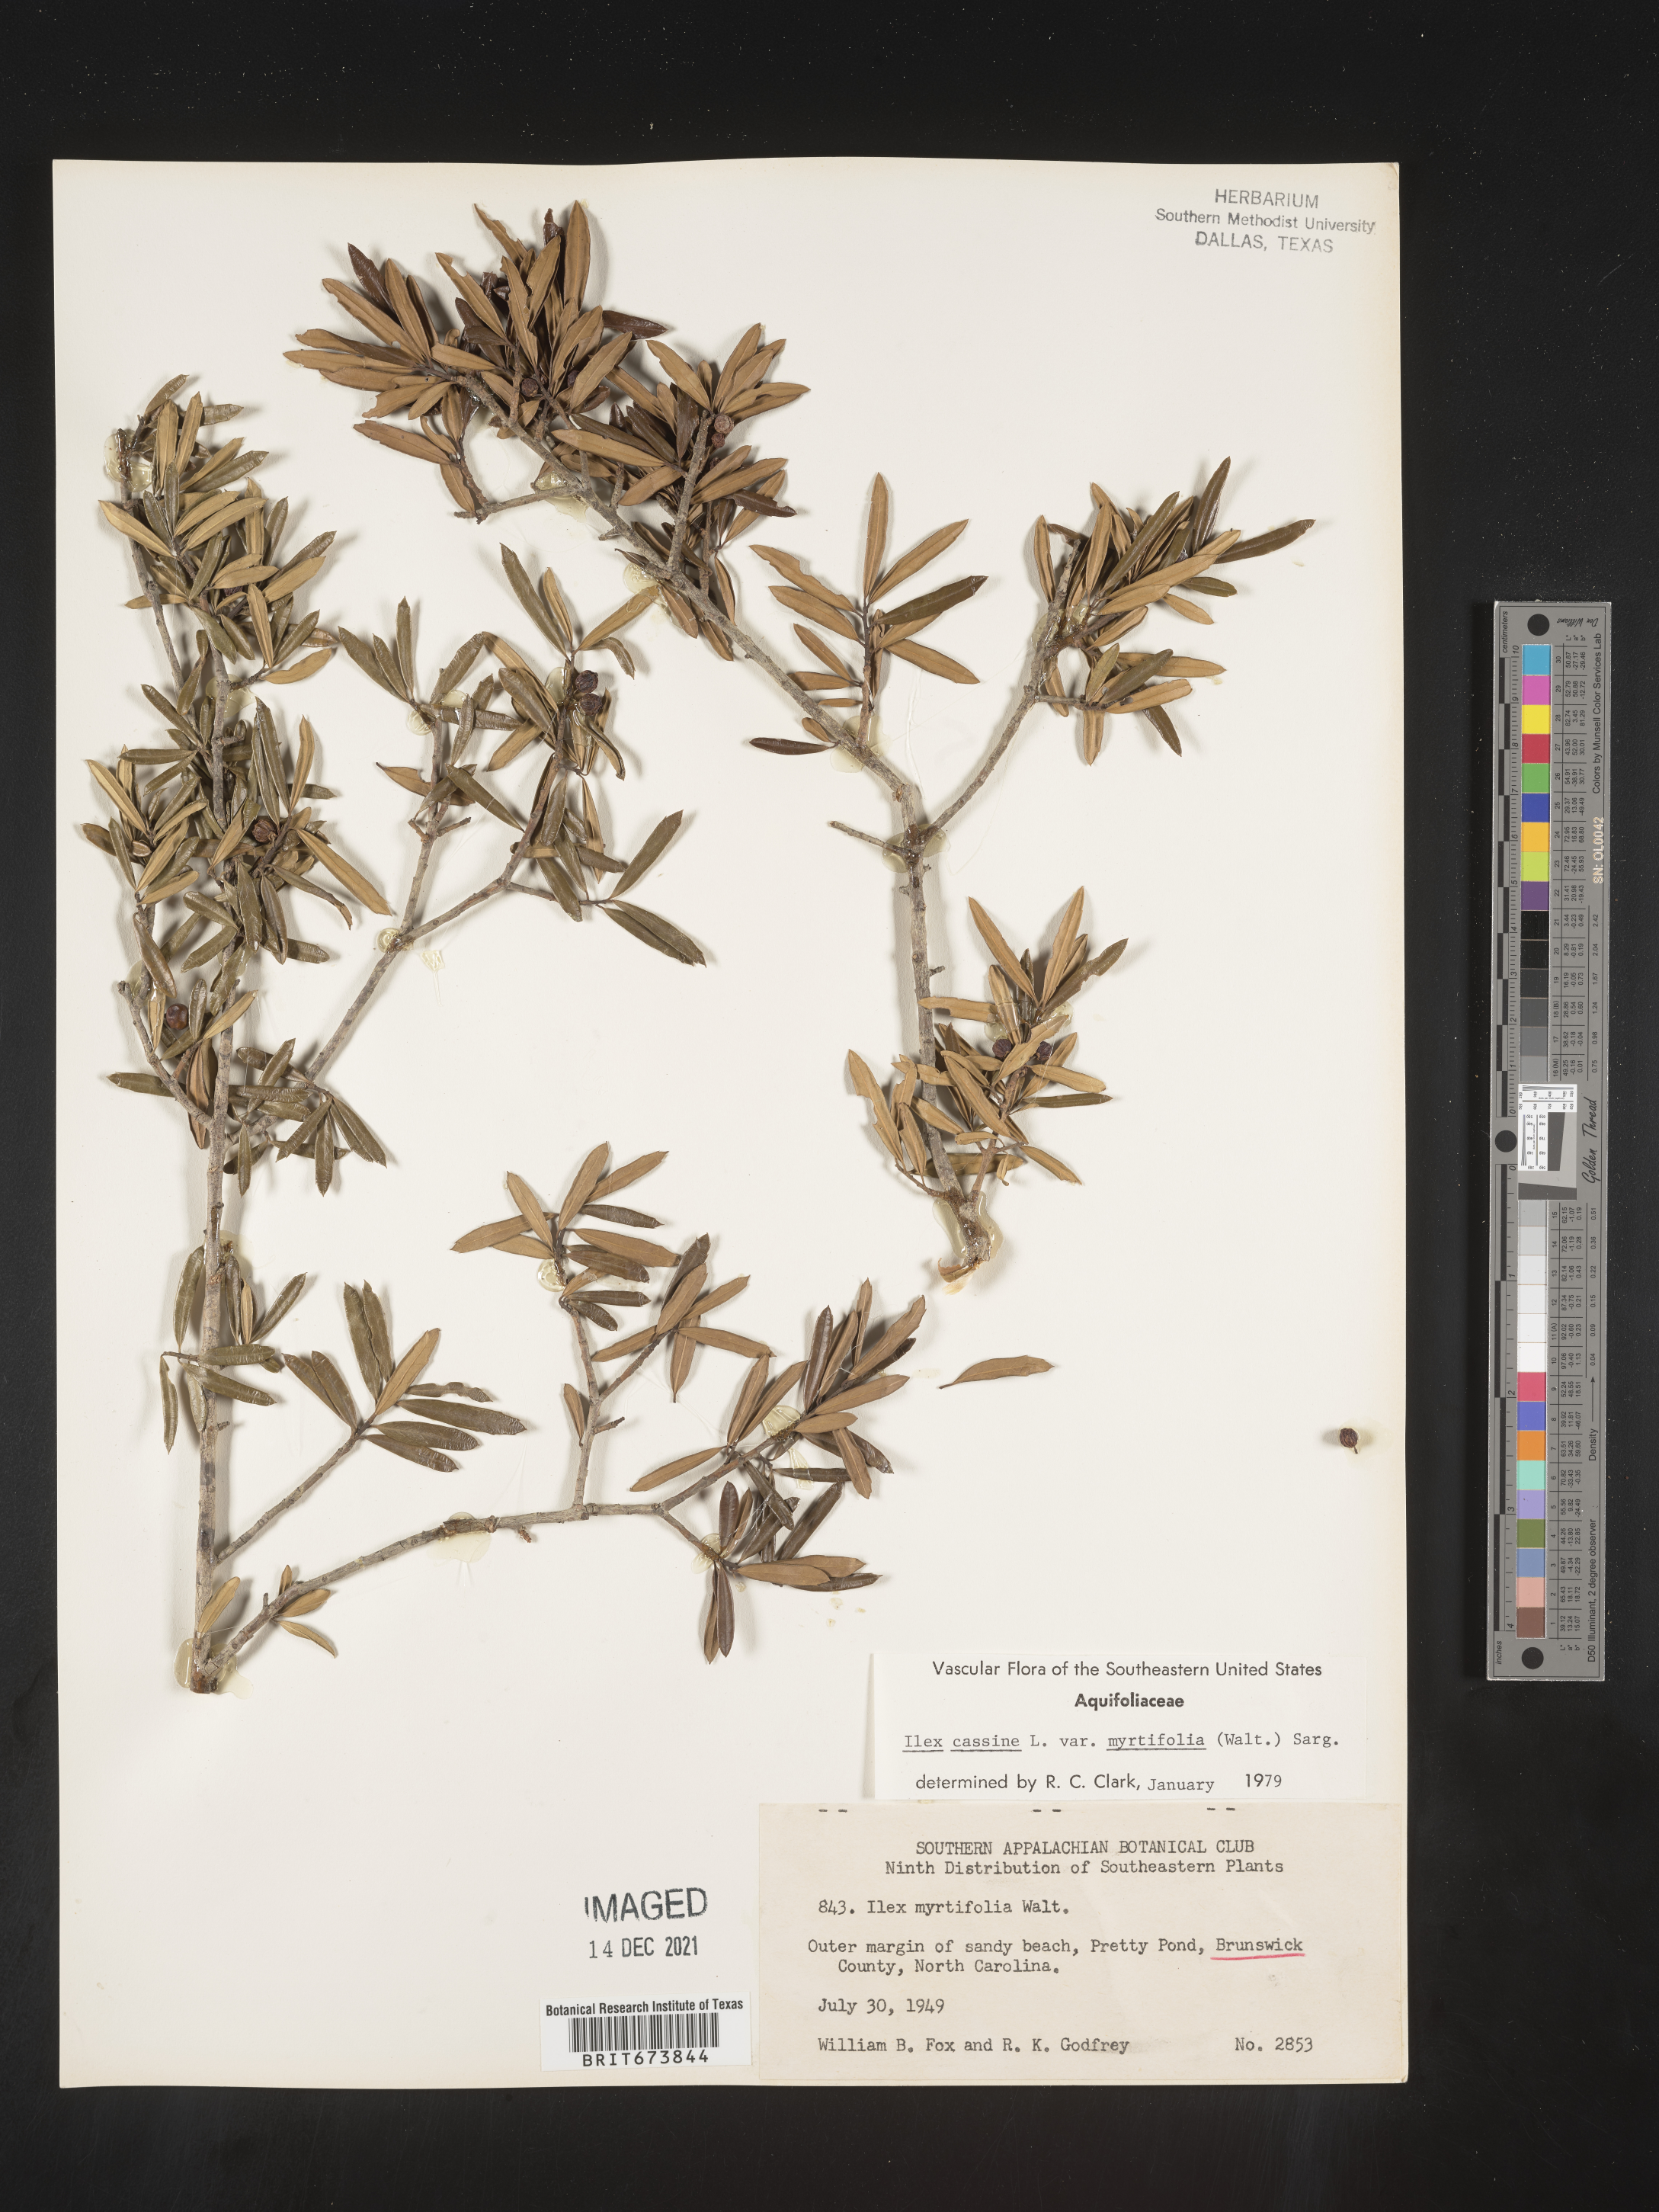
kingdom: Plantae
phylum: Tracheophyta
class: Magnoliopsida
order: Aquifoliales
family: Aquifoliaceae
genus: Ilex
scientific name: Ilex myrtifolia
